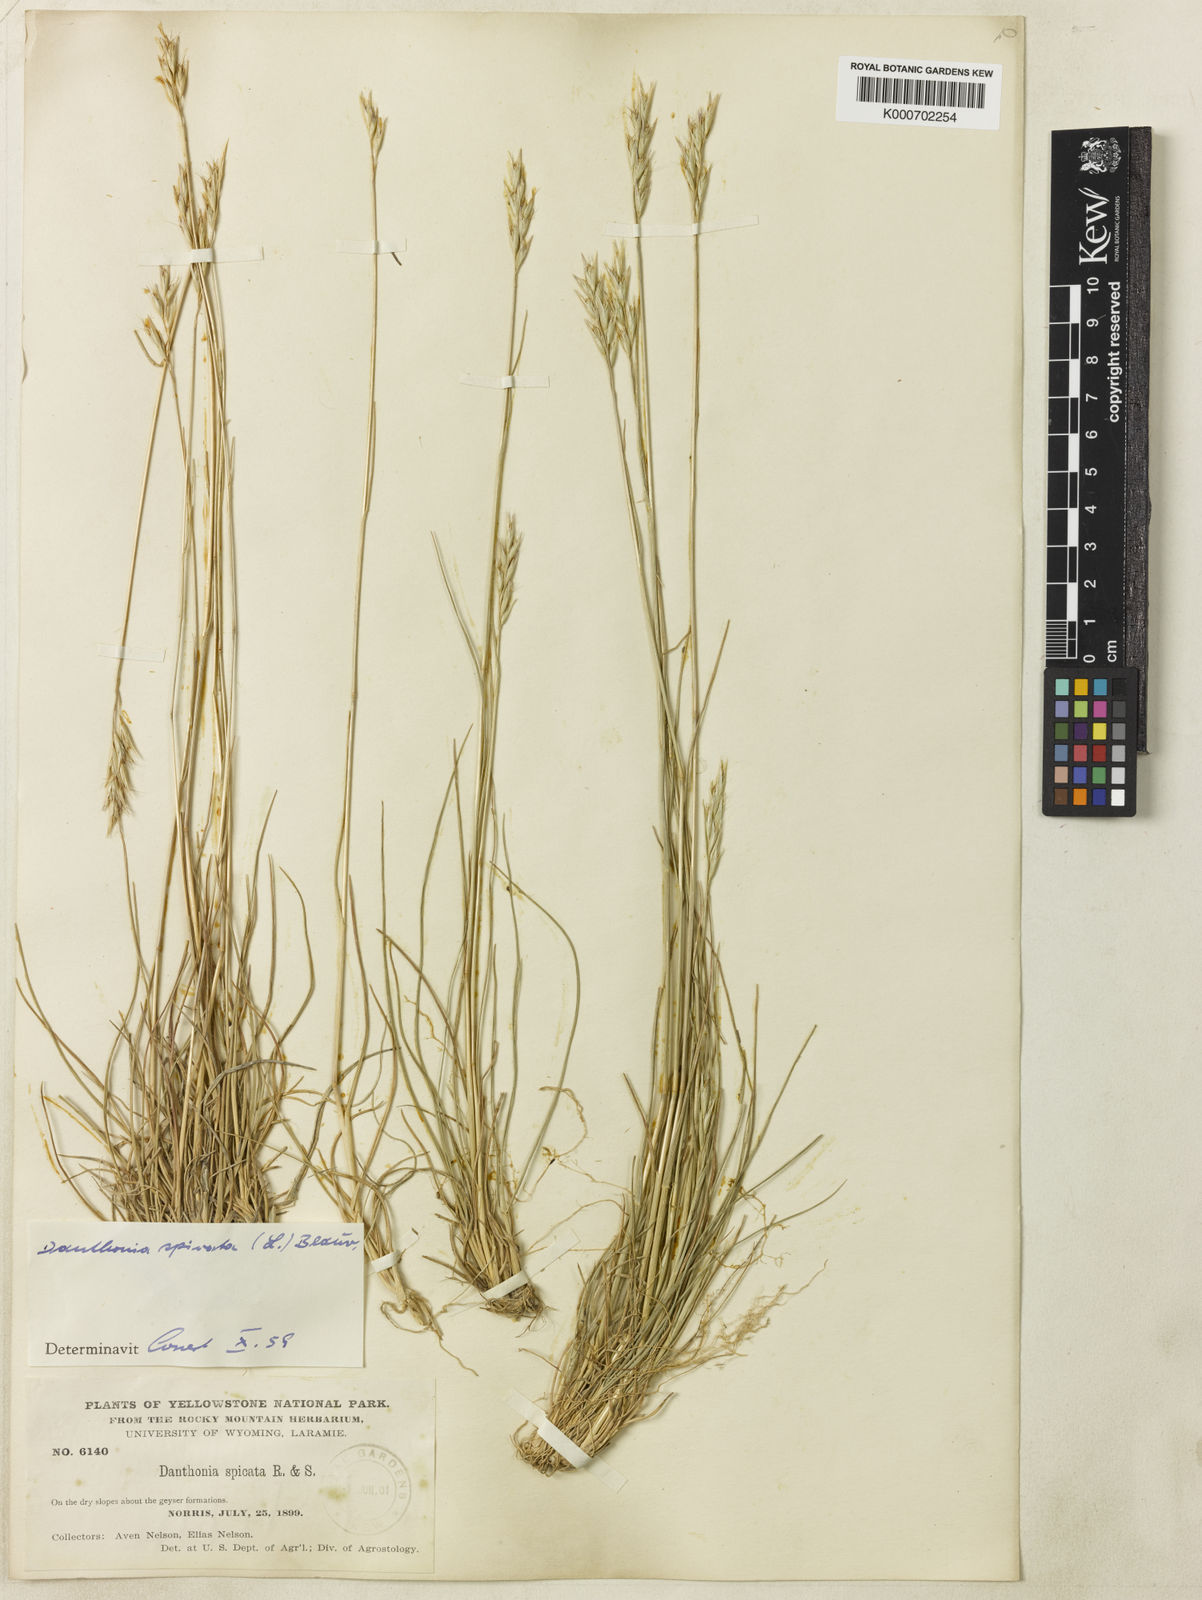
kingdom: Plantae
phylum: Tracheophyta
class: Liliopsida
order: Poales
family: Poaceae
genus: Danthonia
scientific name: Danthonia spicata
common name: Common wild oatgrass
